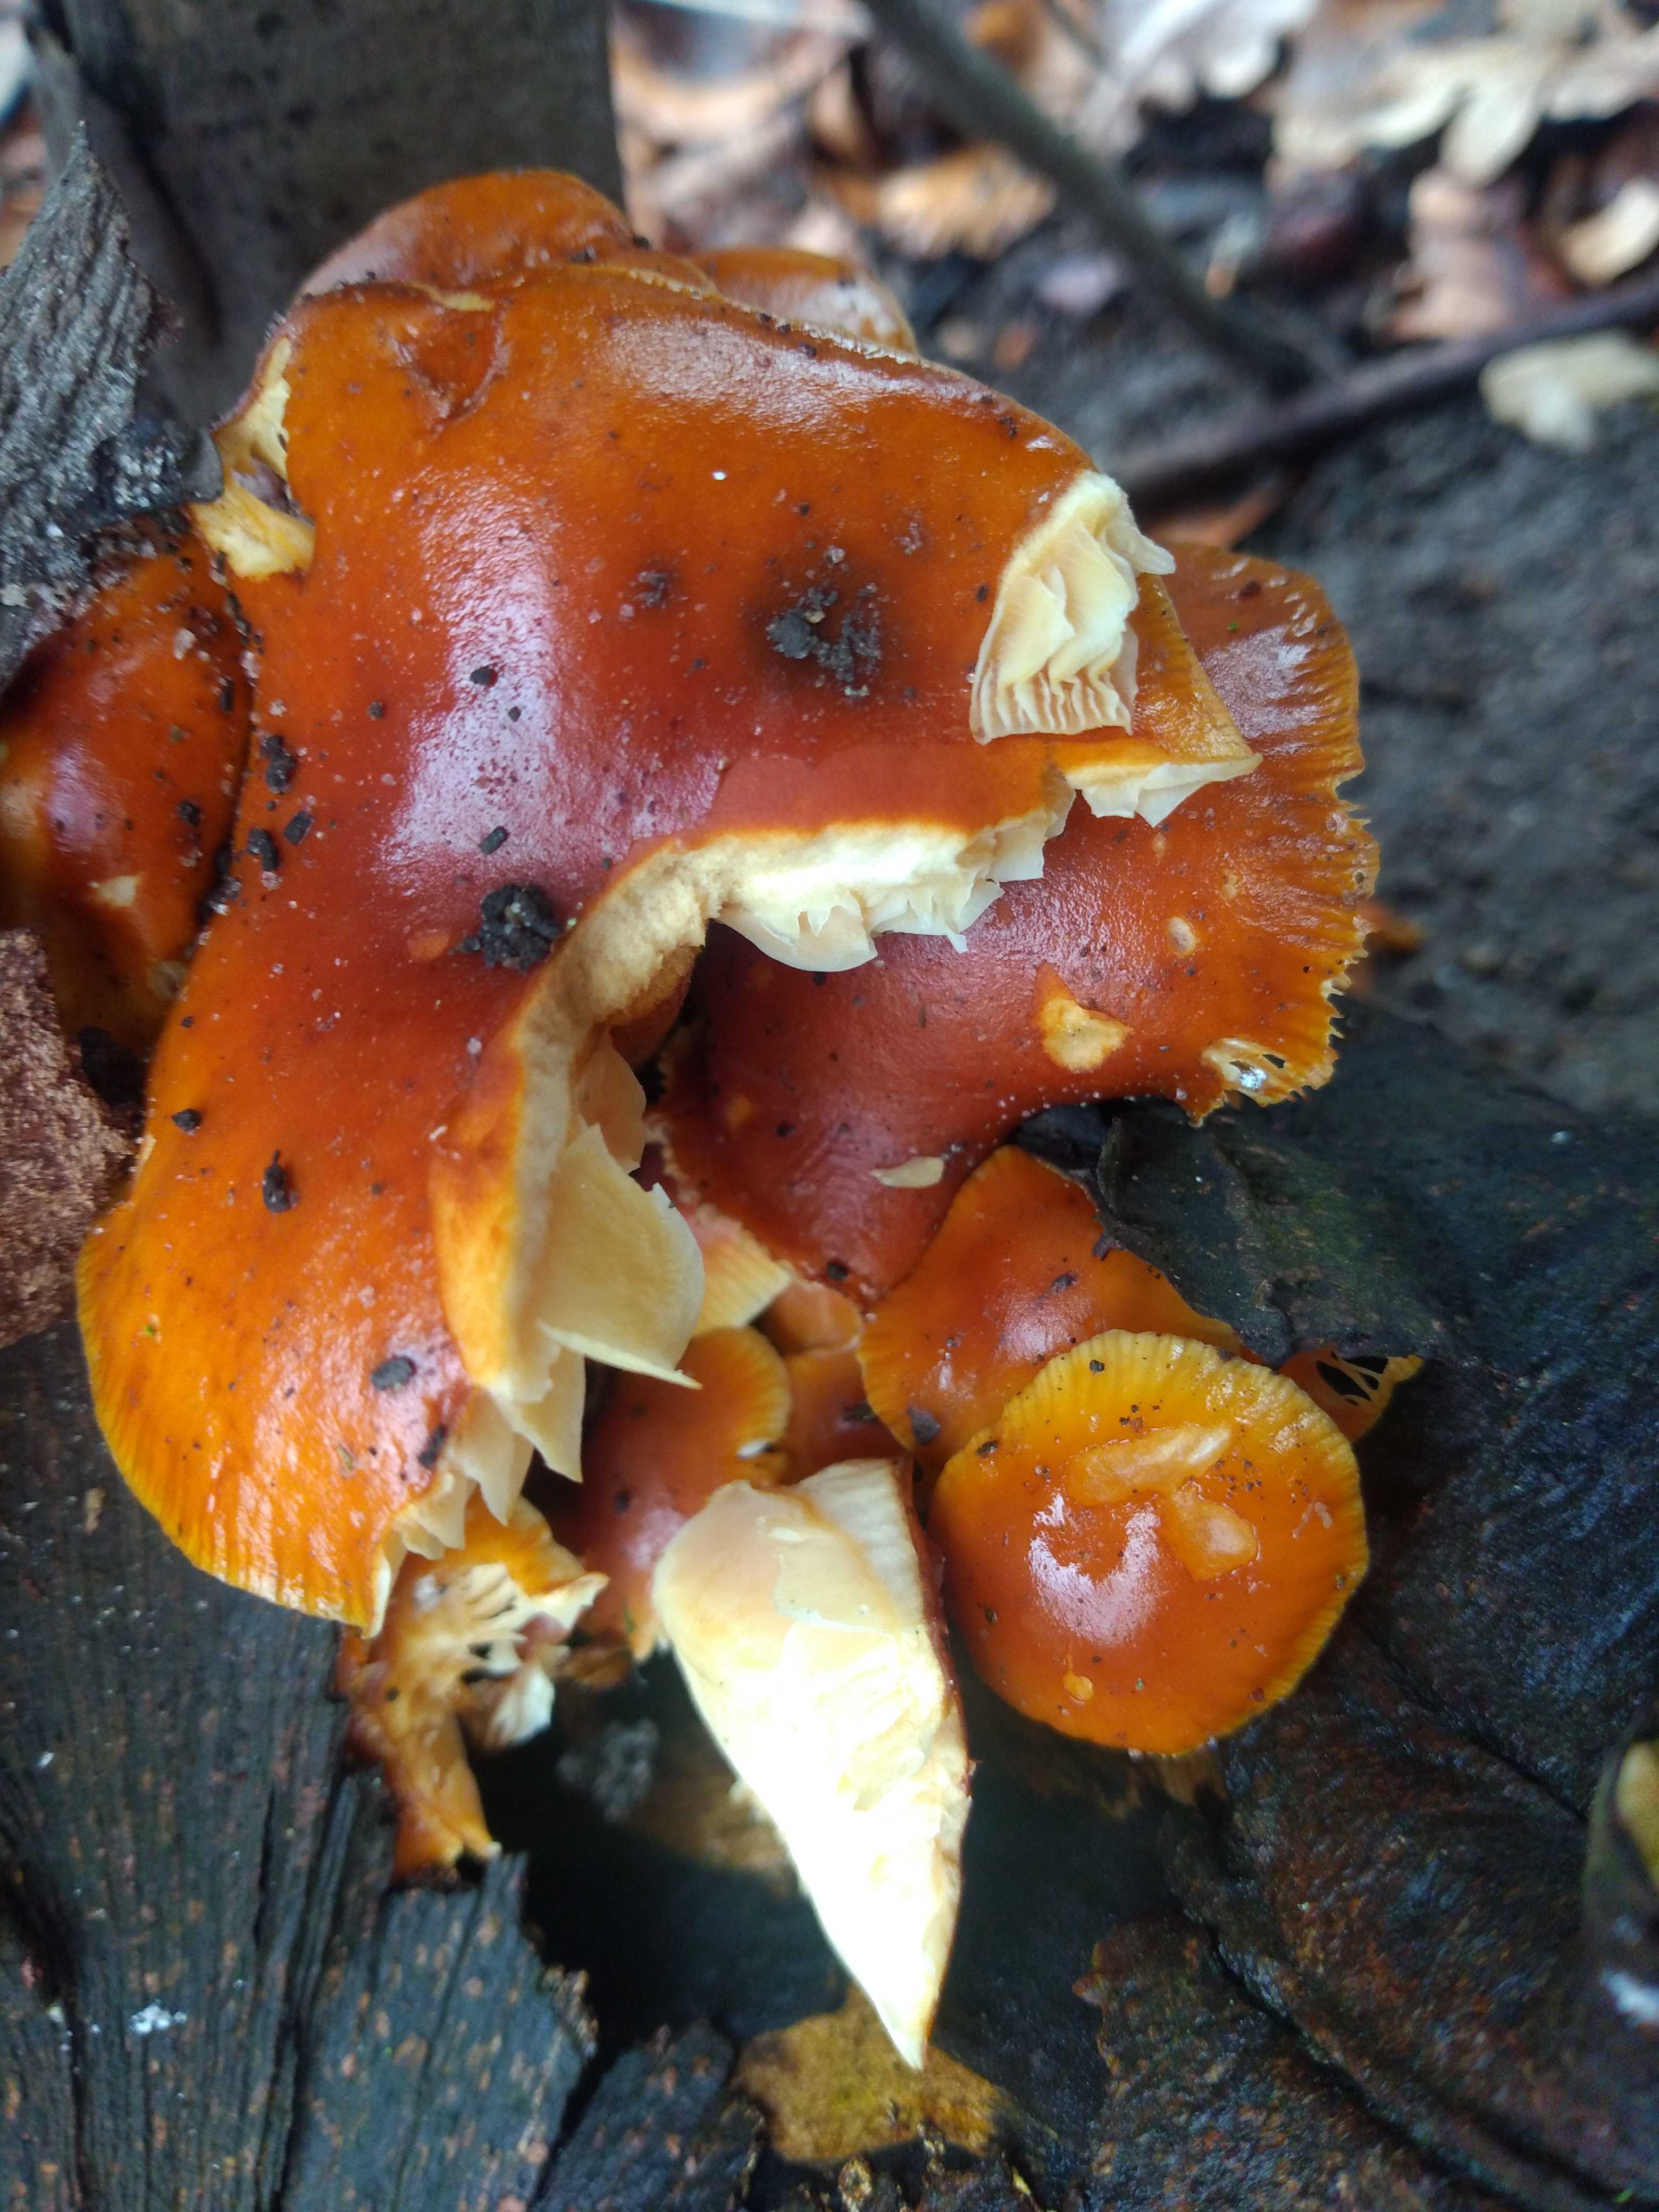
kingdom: Fungi
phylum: Basidiomycota
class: Agaricomycetes
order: Agaricales
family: Physalacriaceae
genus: Flammulina
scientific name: Flammulina velutipes
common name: gul fløjlsfod
